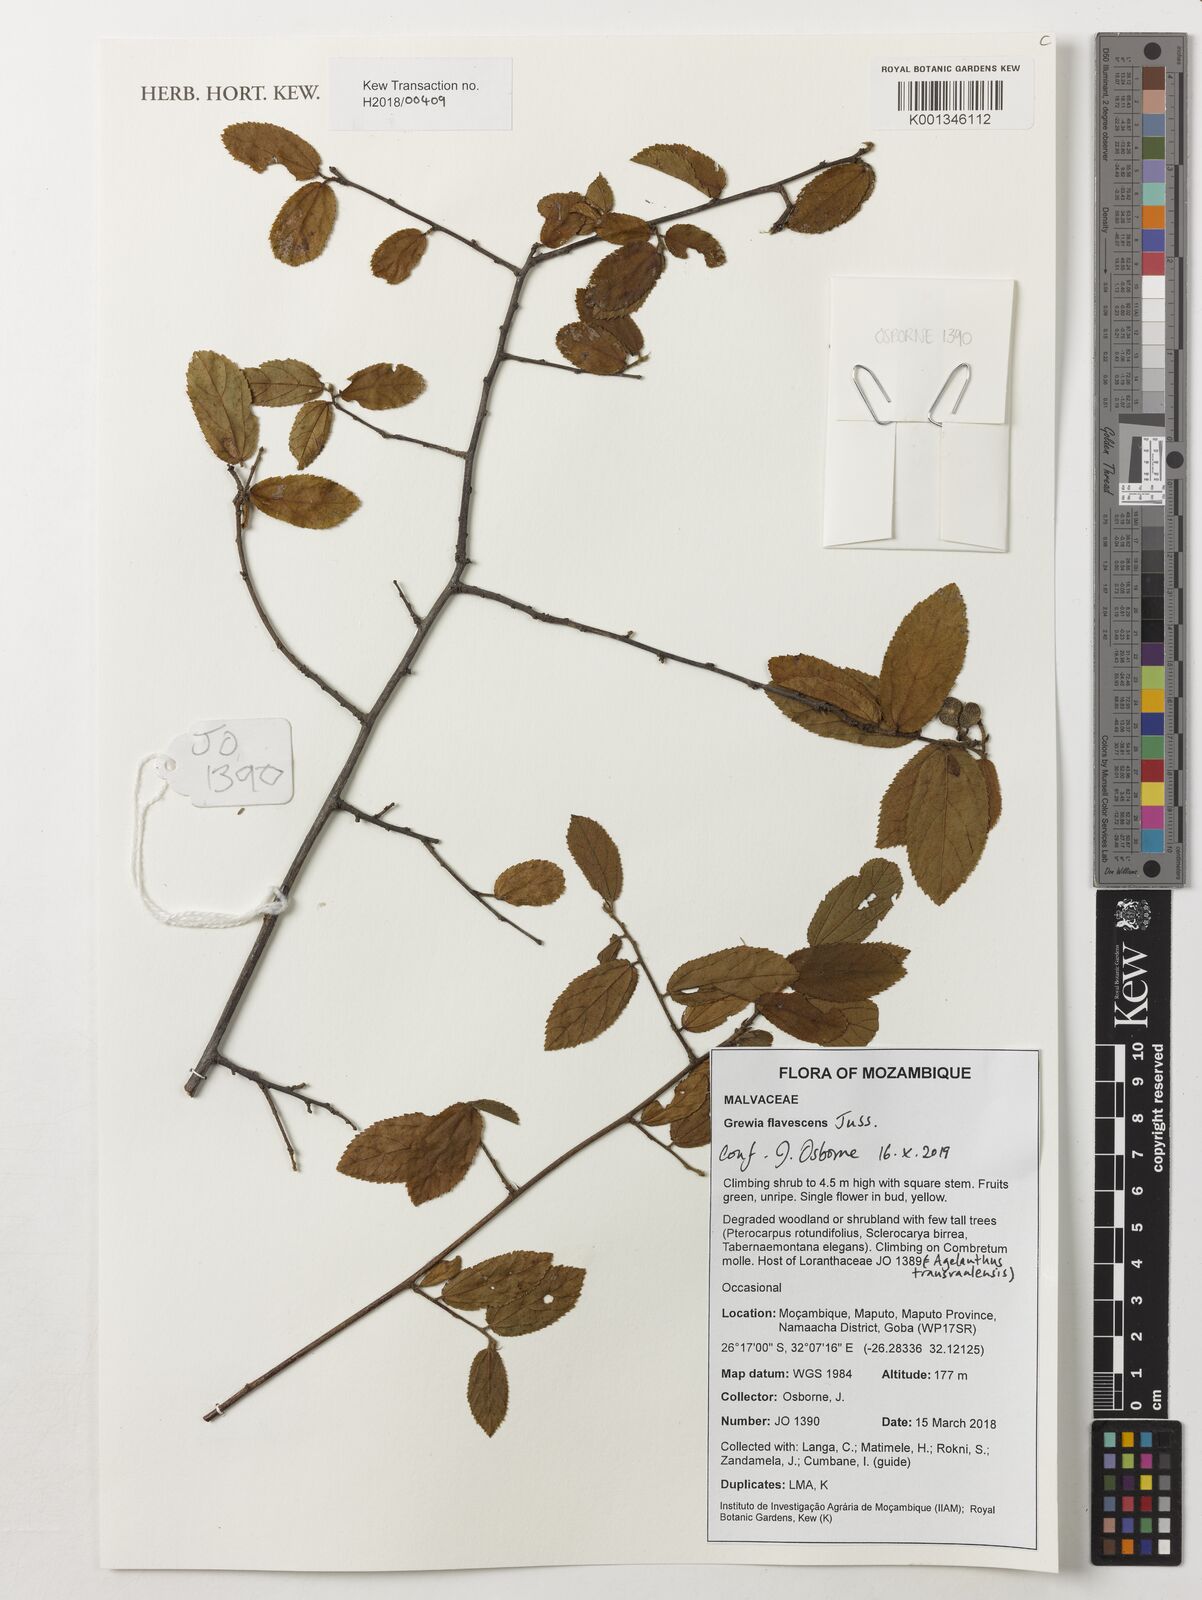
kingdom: Plantae
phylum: Tracheophyta
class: Magnoliopsida
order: Malvales
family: Malvaceae
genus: Grewia
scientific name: Grewia flavescens
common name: Sandpaper raisin
